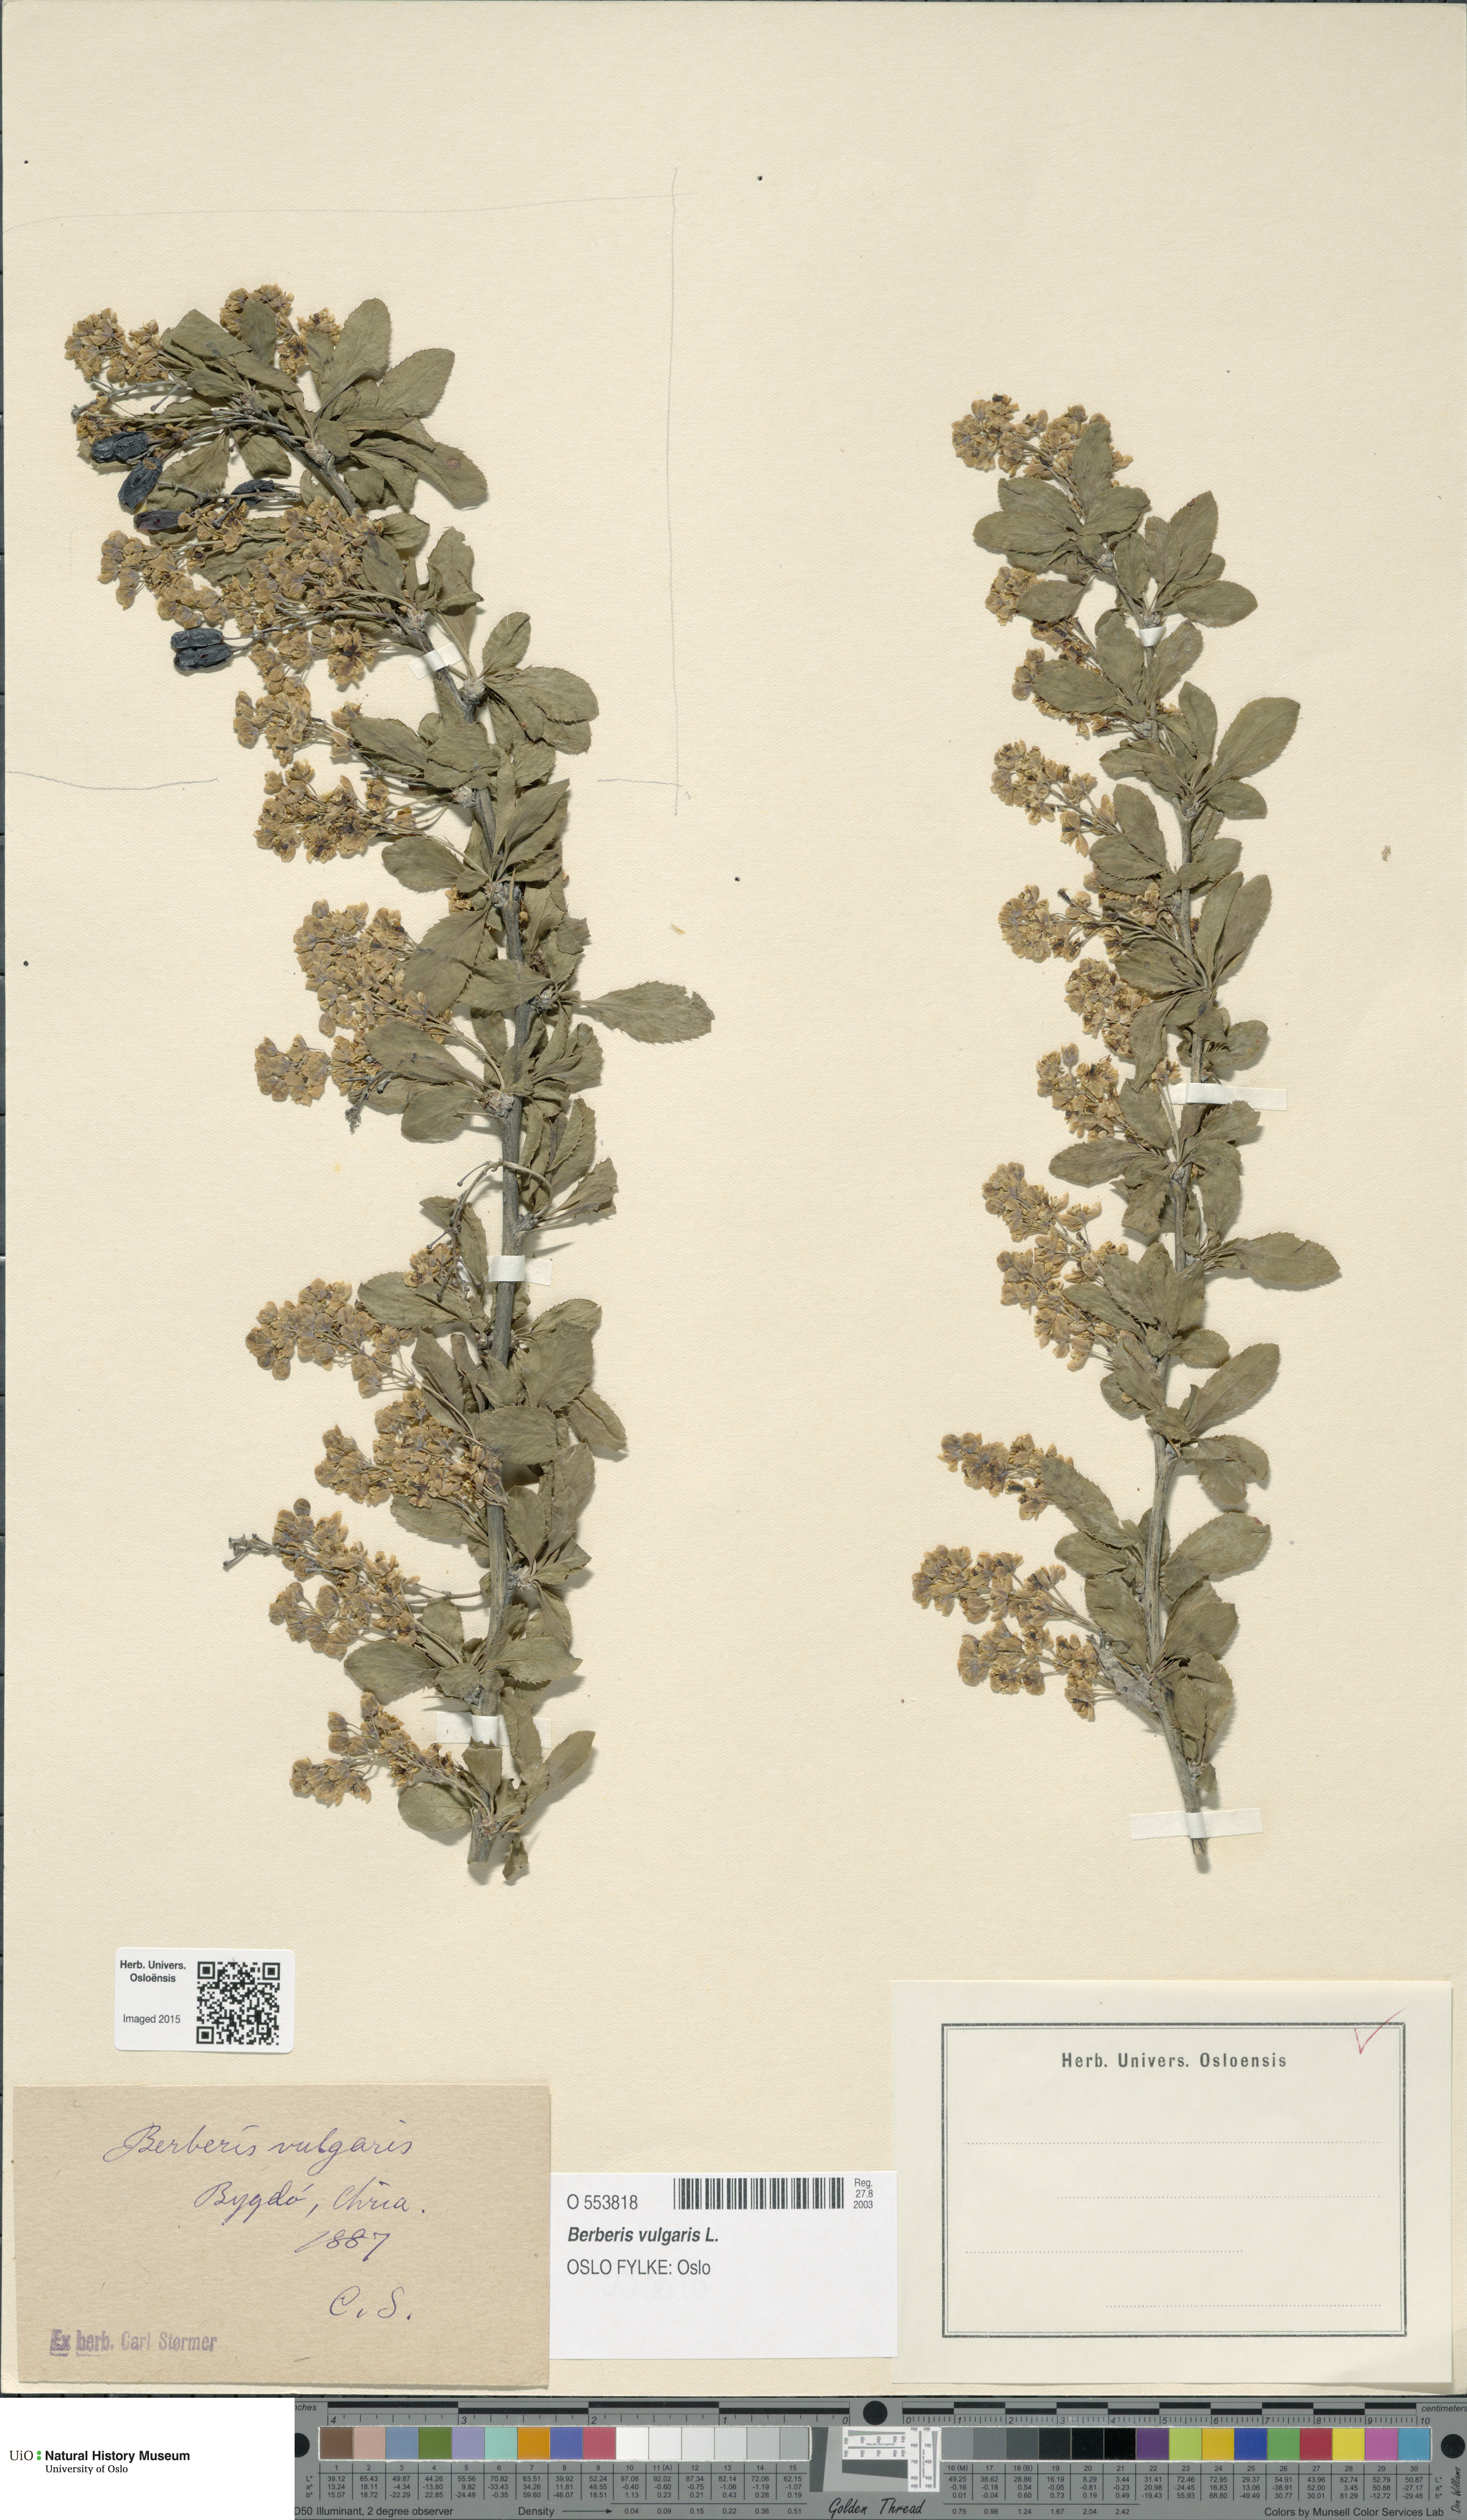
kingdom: Plantae
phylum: Tracheophyta
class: Magnoliopsida
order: Ranunculales
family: Berberidaceae
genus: Berberis
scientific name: Berberis vulgaris
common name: Barberry
